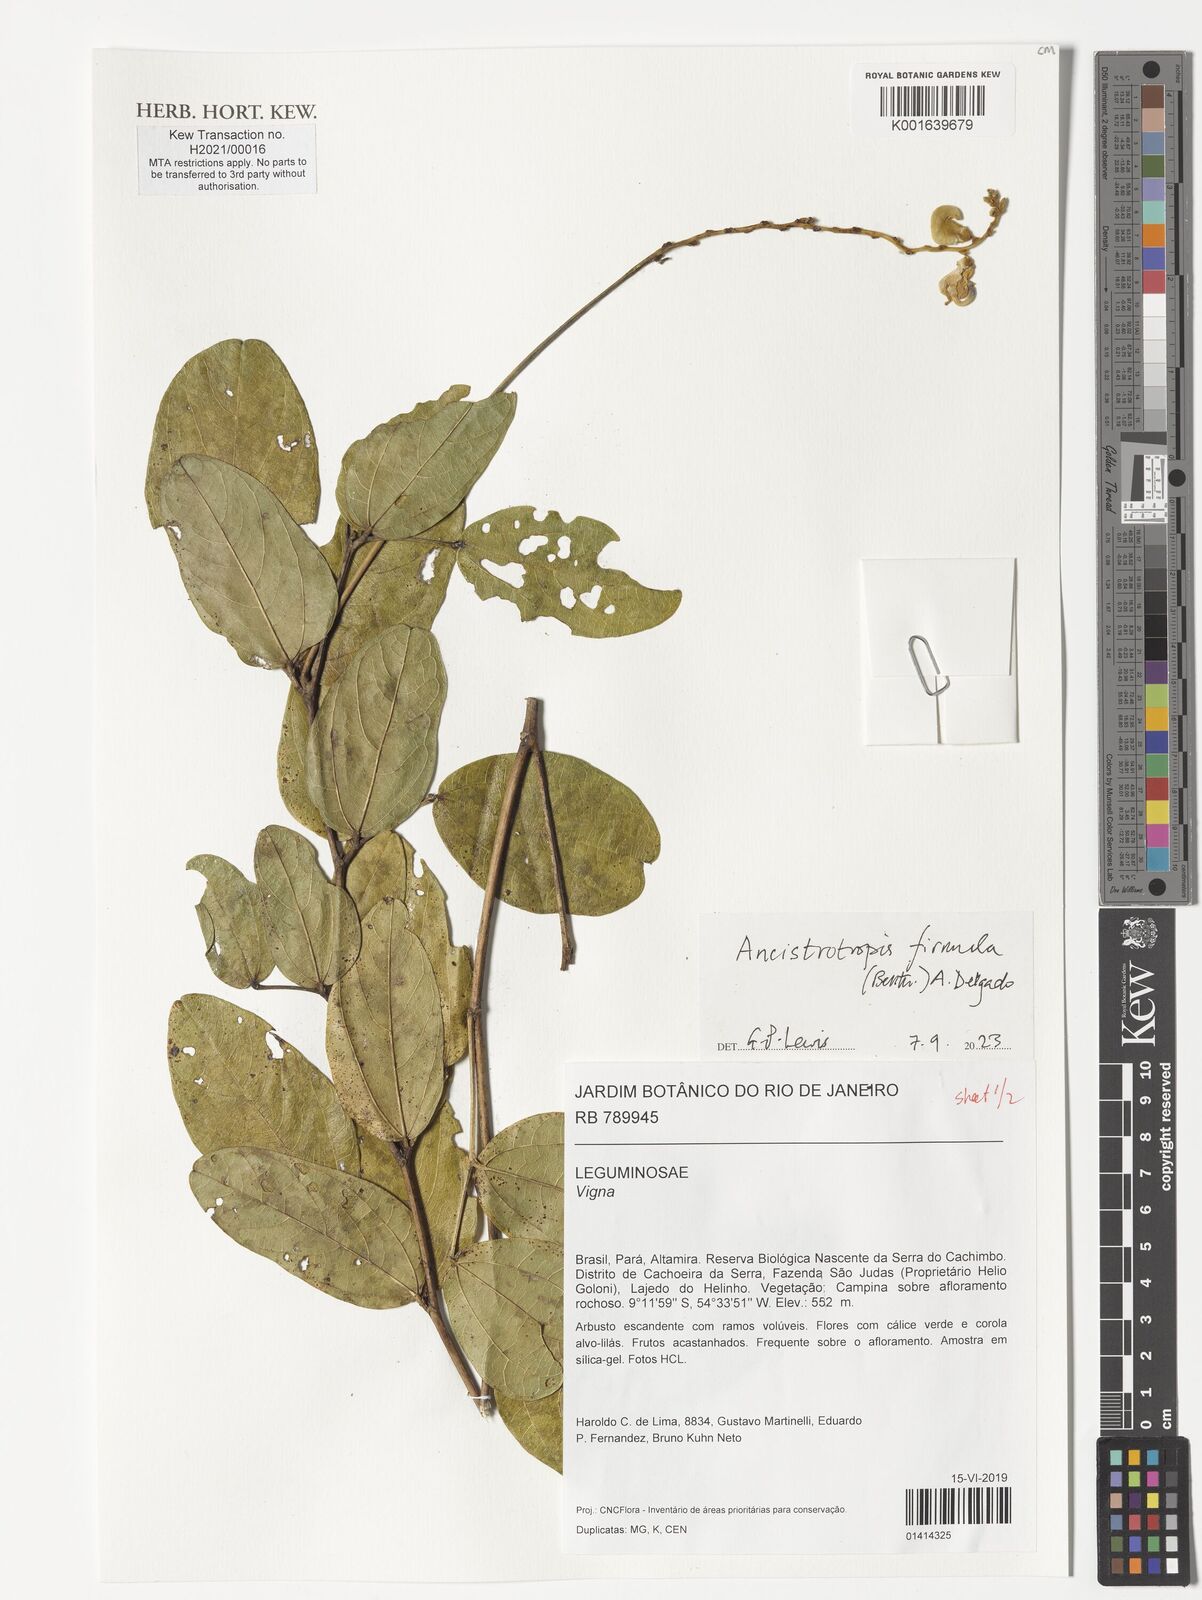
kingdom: Plantae
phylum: Tracheophyta
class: Magnoliopsida
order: Fabales
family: Fabaceae
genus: Ancistrotropis
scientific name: Ancistrotropis firmula
